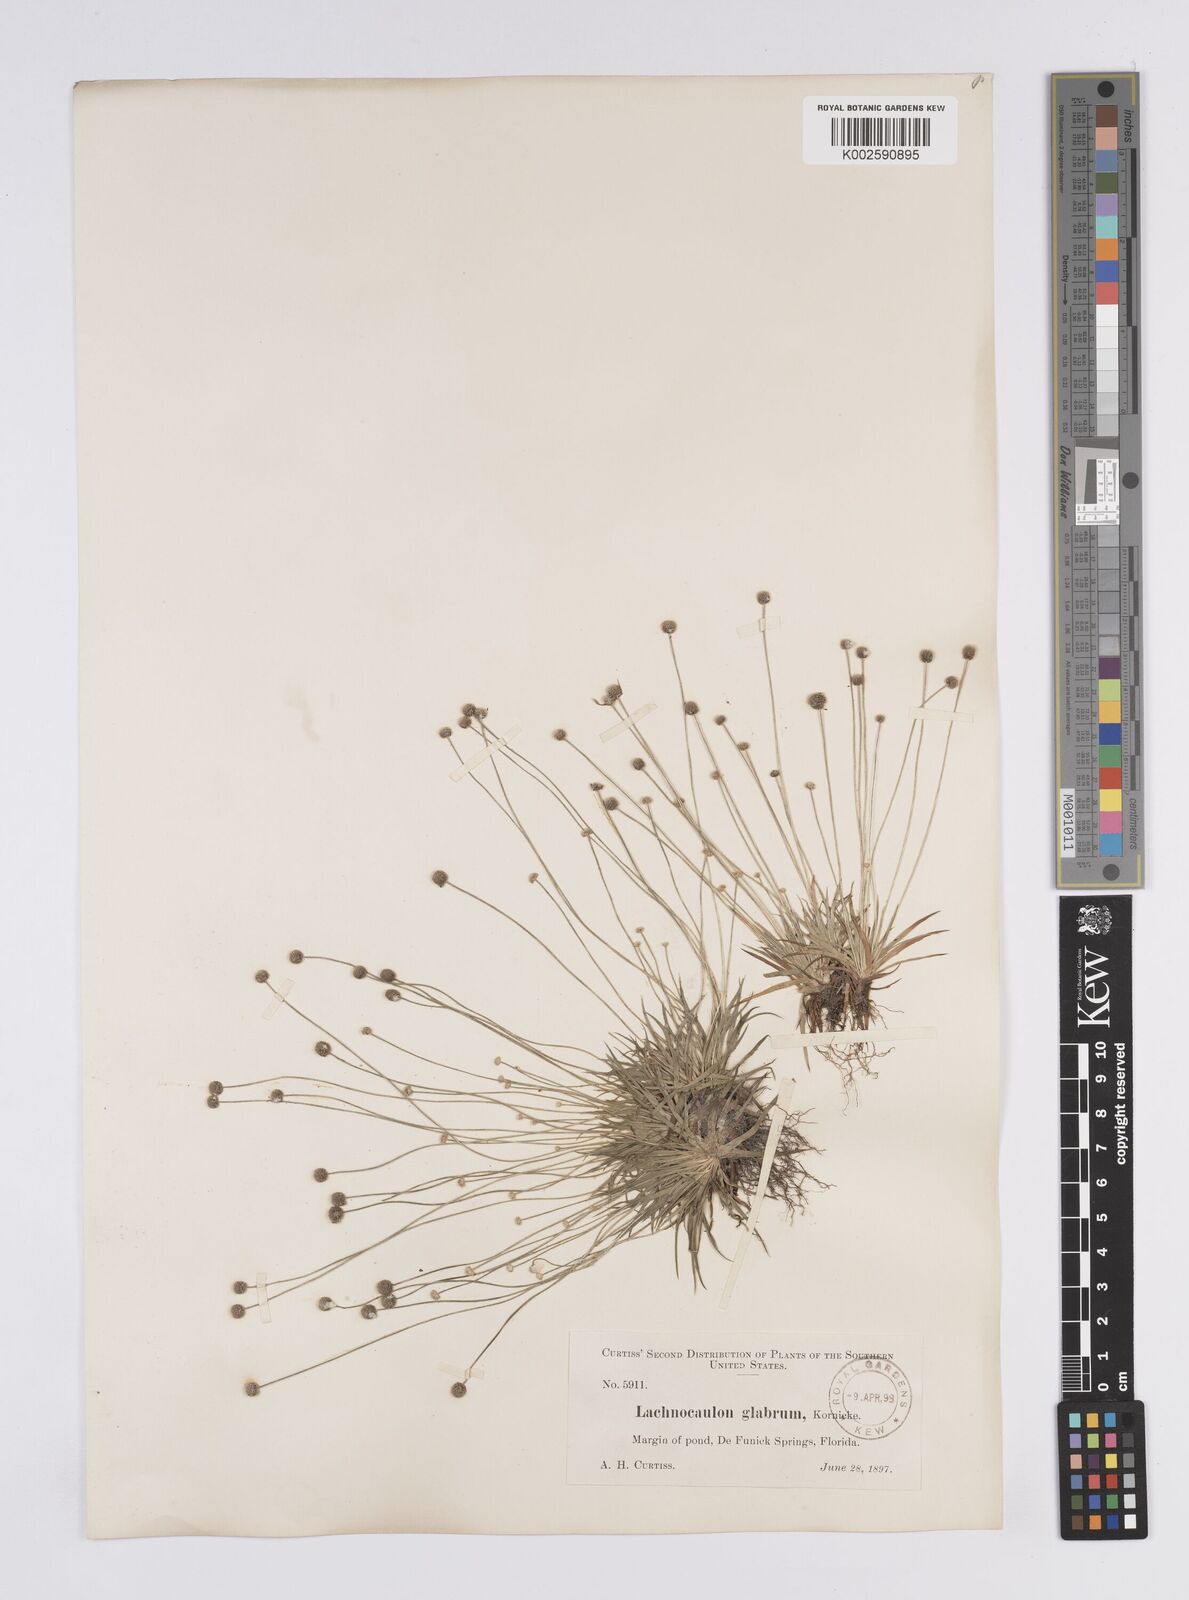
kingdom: Plantae
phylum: Tracheophyta
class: Liliopsida
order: Poales
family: Eriocaulaceae
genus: Paepalanthus
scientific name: Paepalanthus anceps
